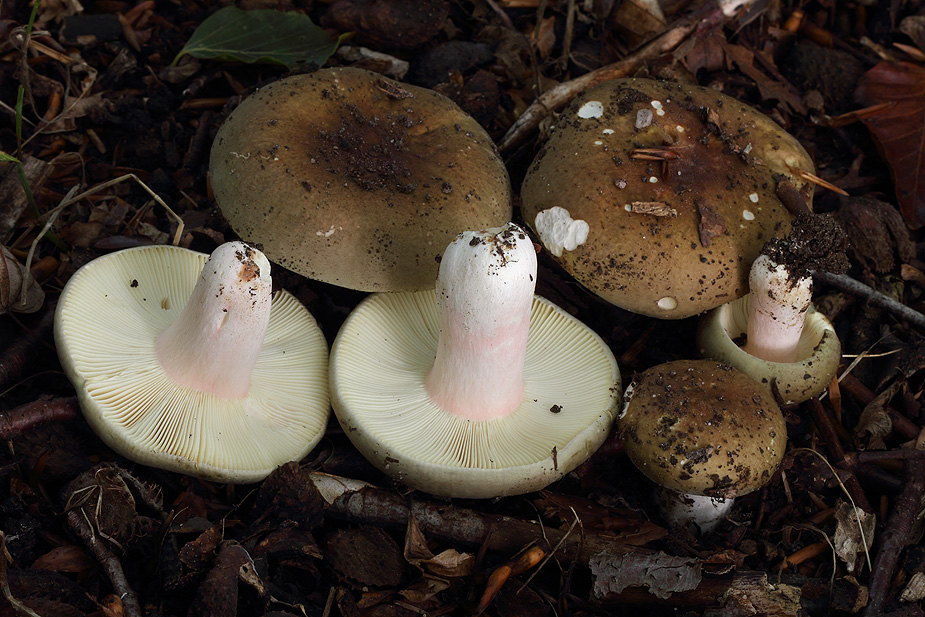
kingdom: Fungi
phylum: Basidiomycota
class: Agaricomycetes
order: Russulales
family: Russulaceae
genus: Russula
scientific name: Russula olivacea
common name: stor skørhat
